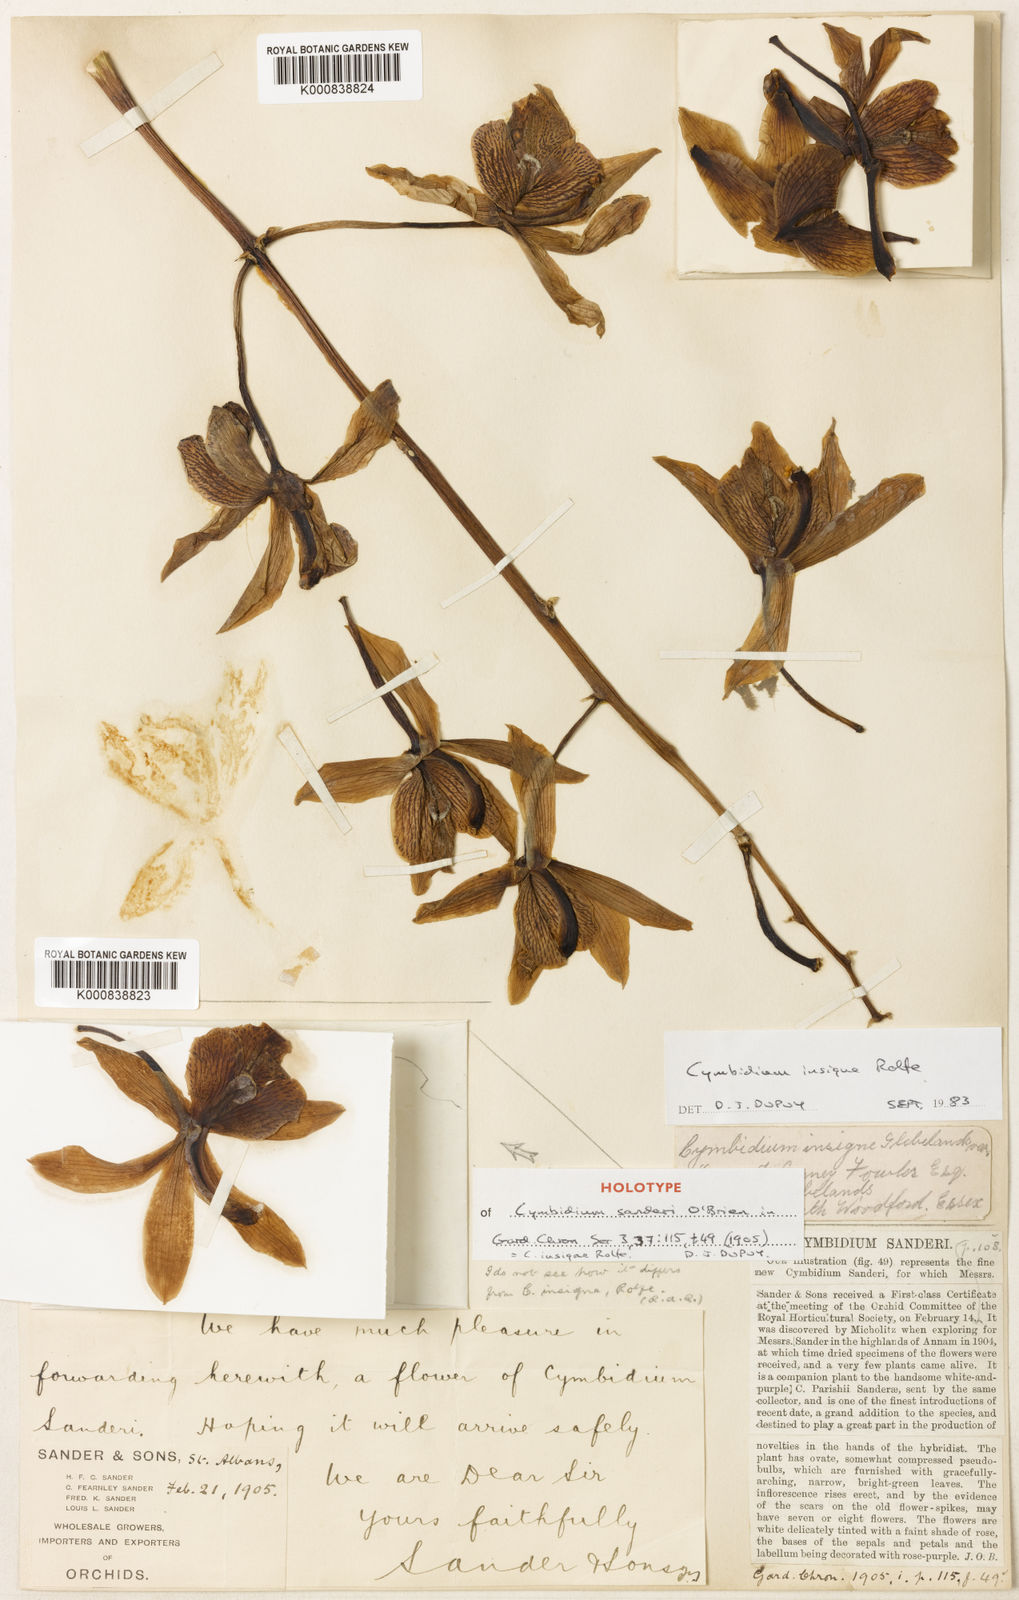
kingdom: Plantae
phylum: Tracheophyta
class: Liliopsida
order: Asparagales
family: Orchidaceae
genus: Cymbidium
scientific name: Cymbidium insigne
